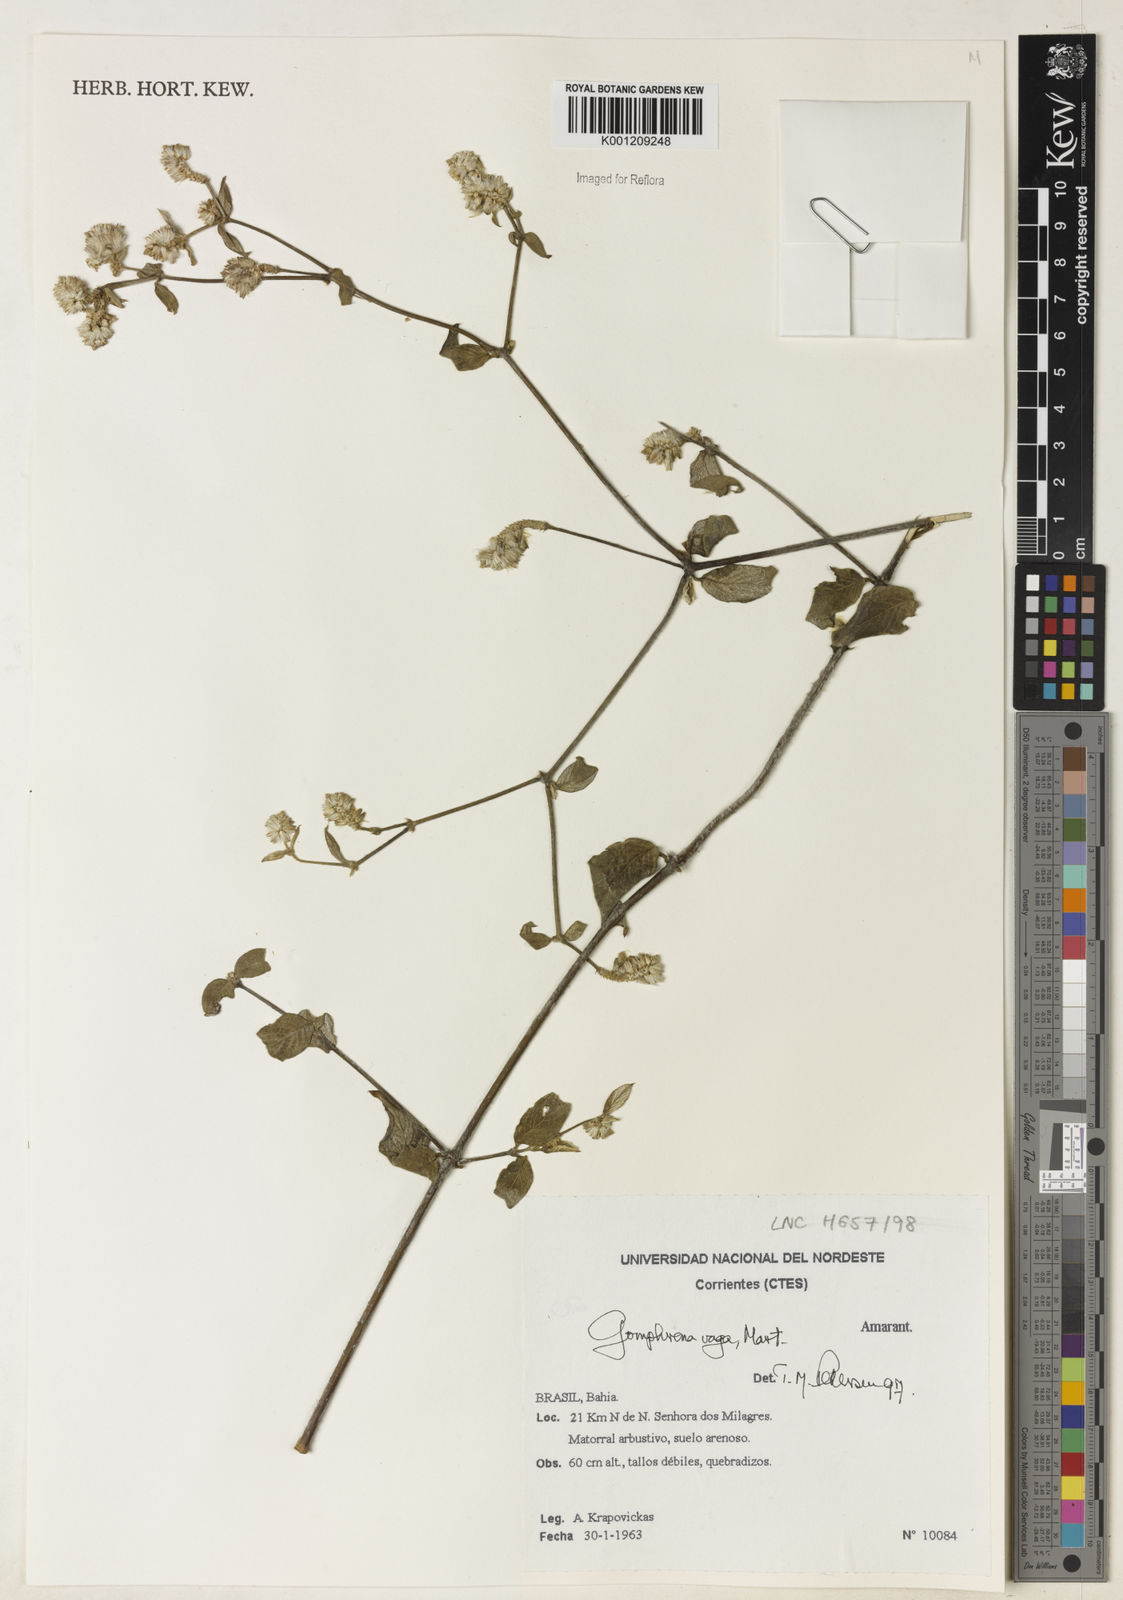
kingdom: Plantae
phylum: Tracheophyta
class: Magnoliopsida
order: Caryophyllales
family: Amaranthaceae
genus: Gomphrena
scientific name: Gomphrena vaga
